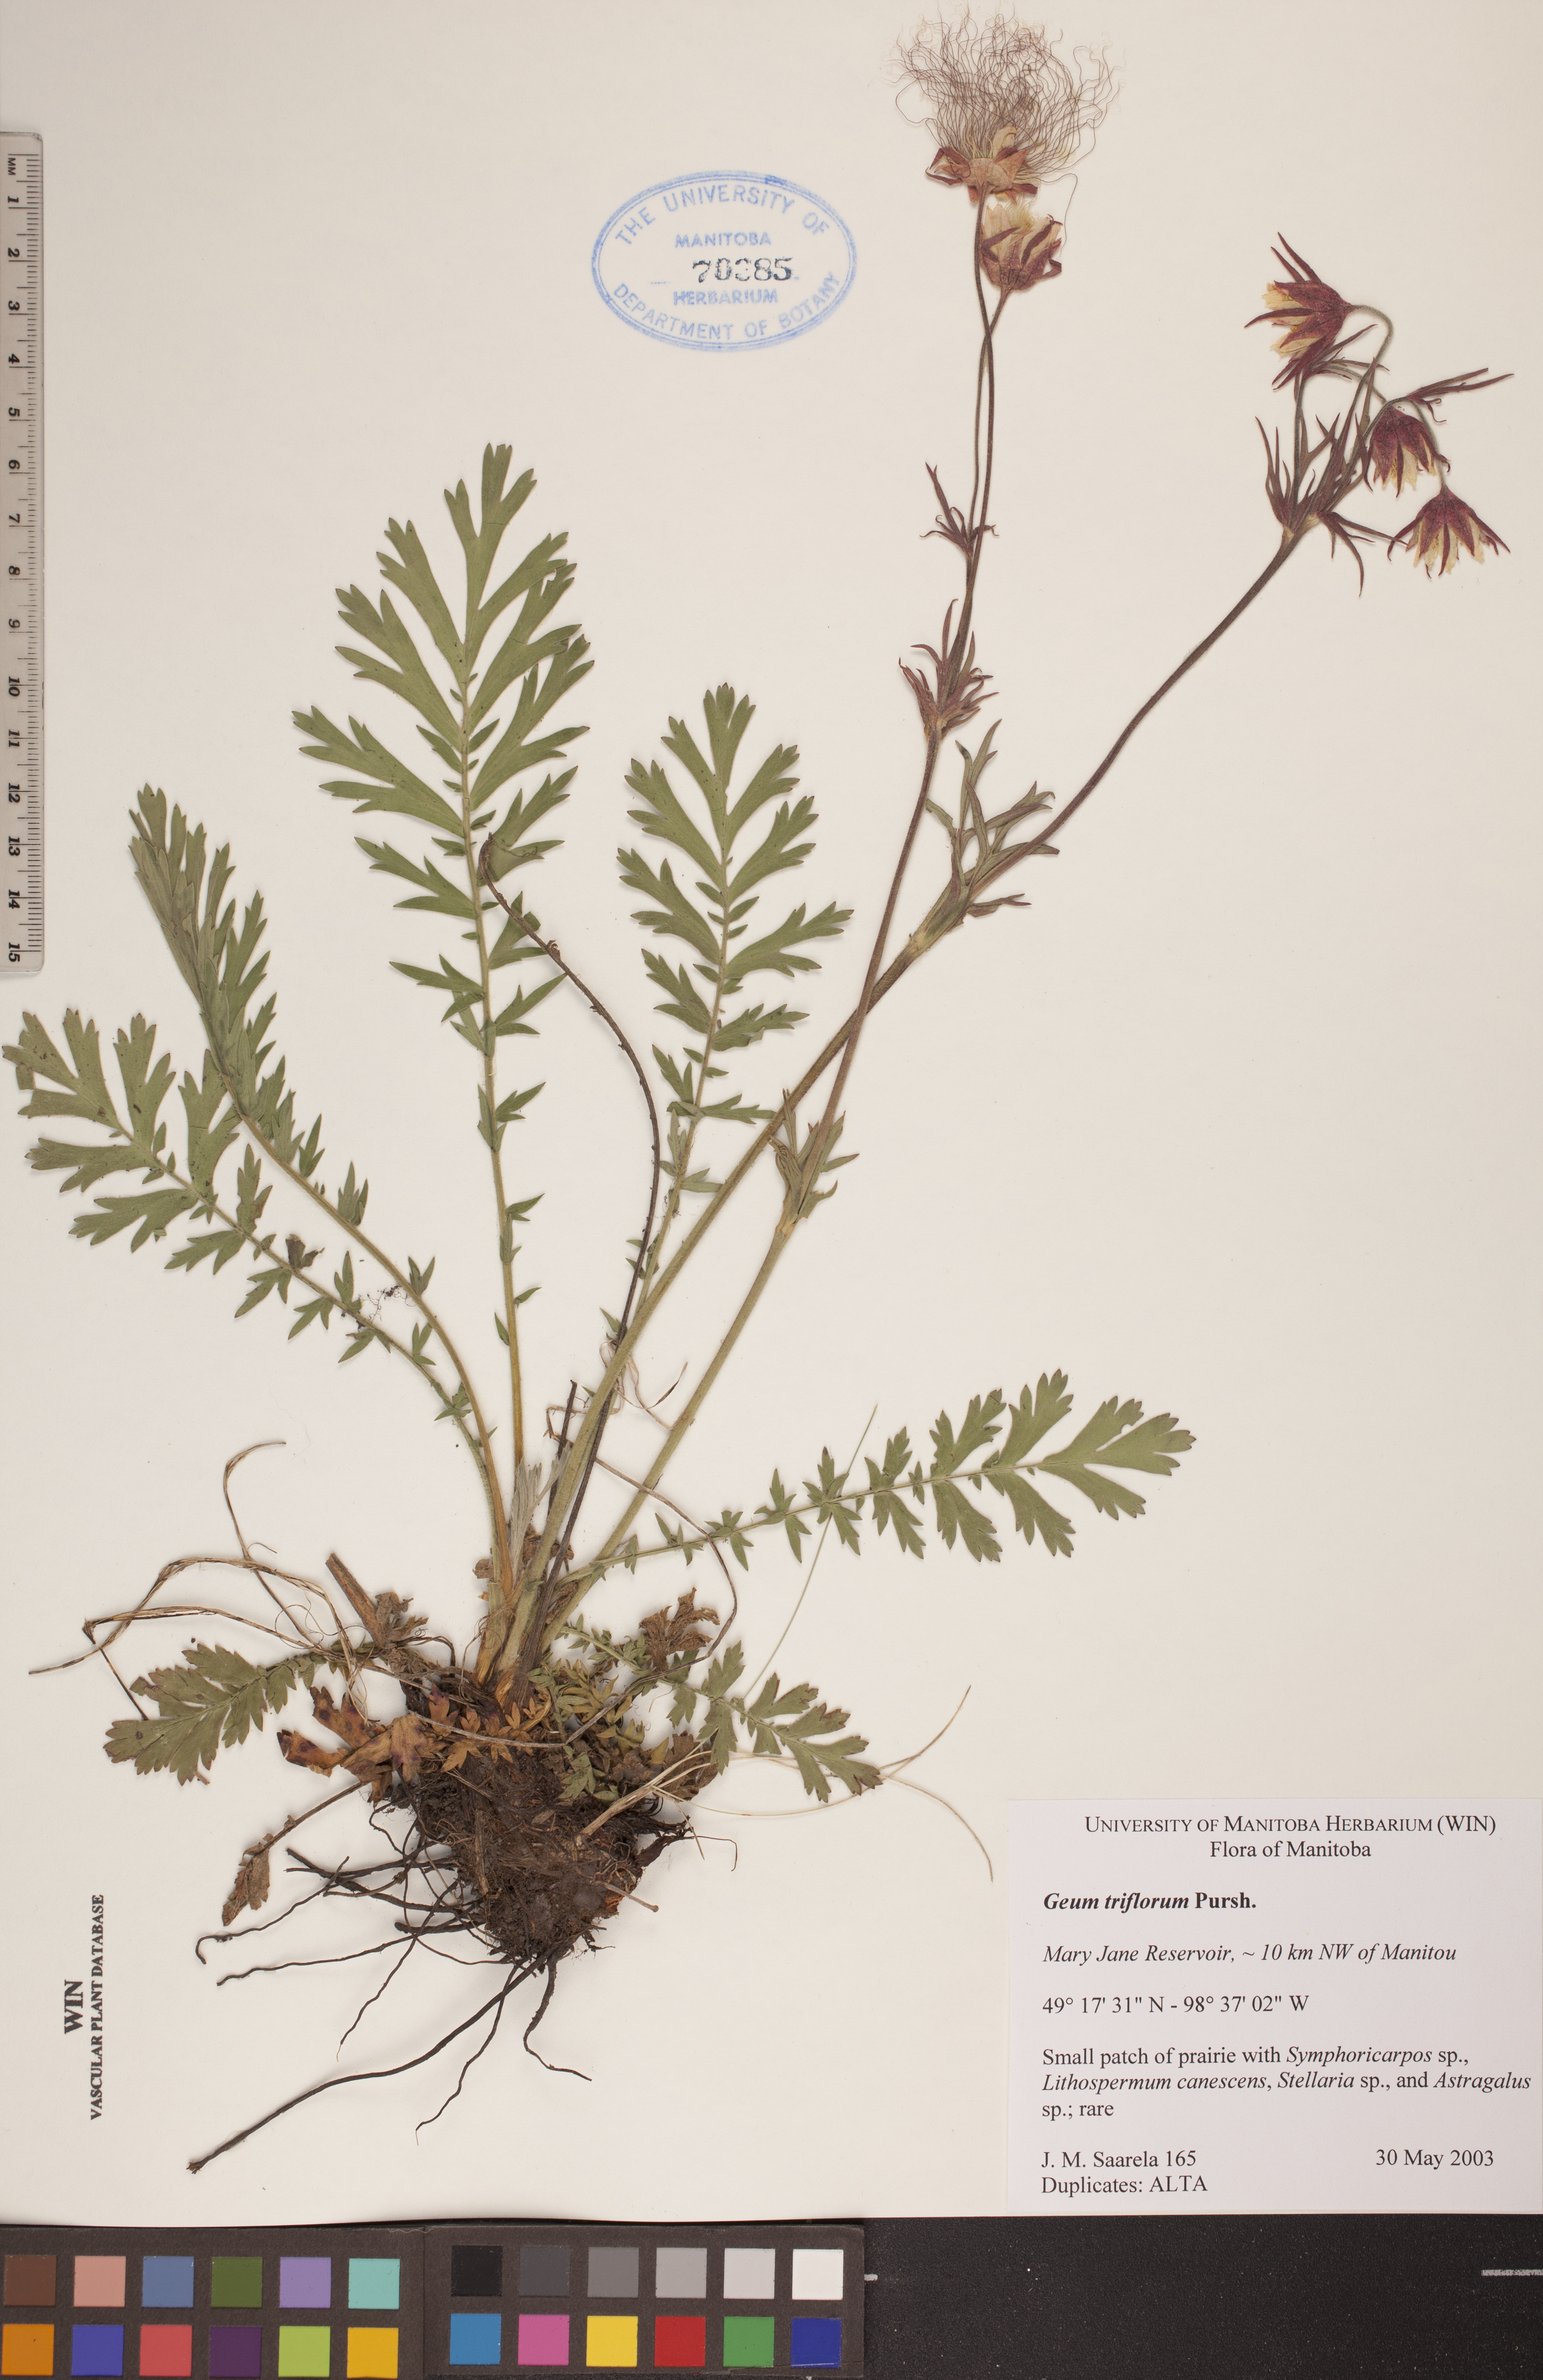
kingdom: Plantae
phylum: Tracheophyta
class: Magnoliopsida
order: Rosales
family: Rosaceae
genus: Geum
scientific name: Geum triflorum
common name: Old man's whiskers
